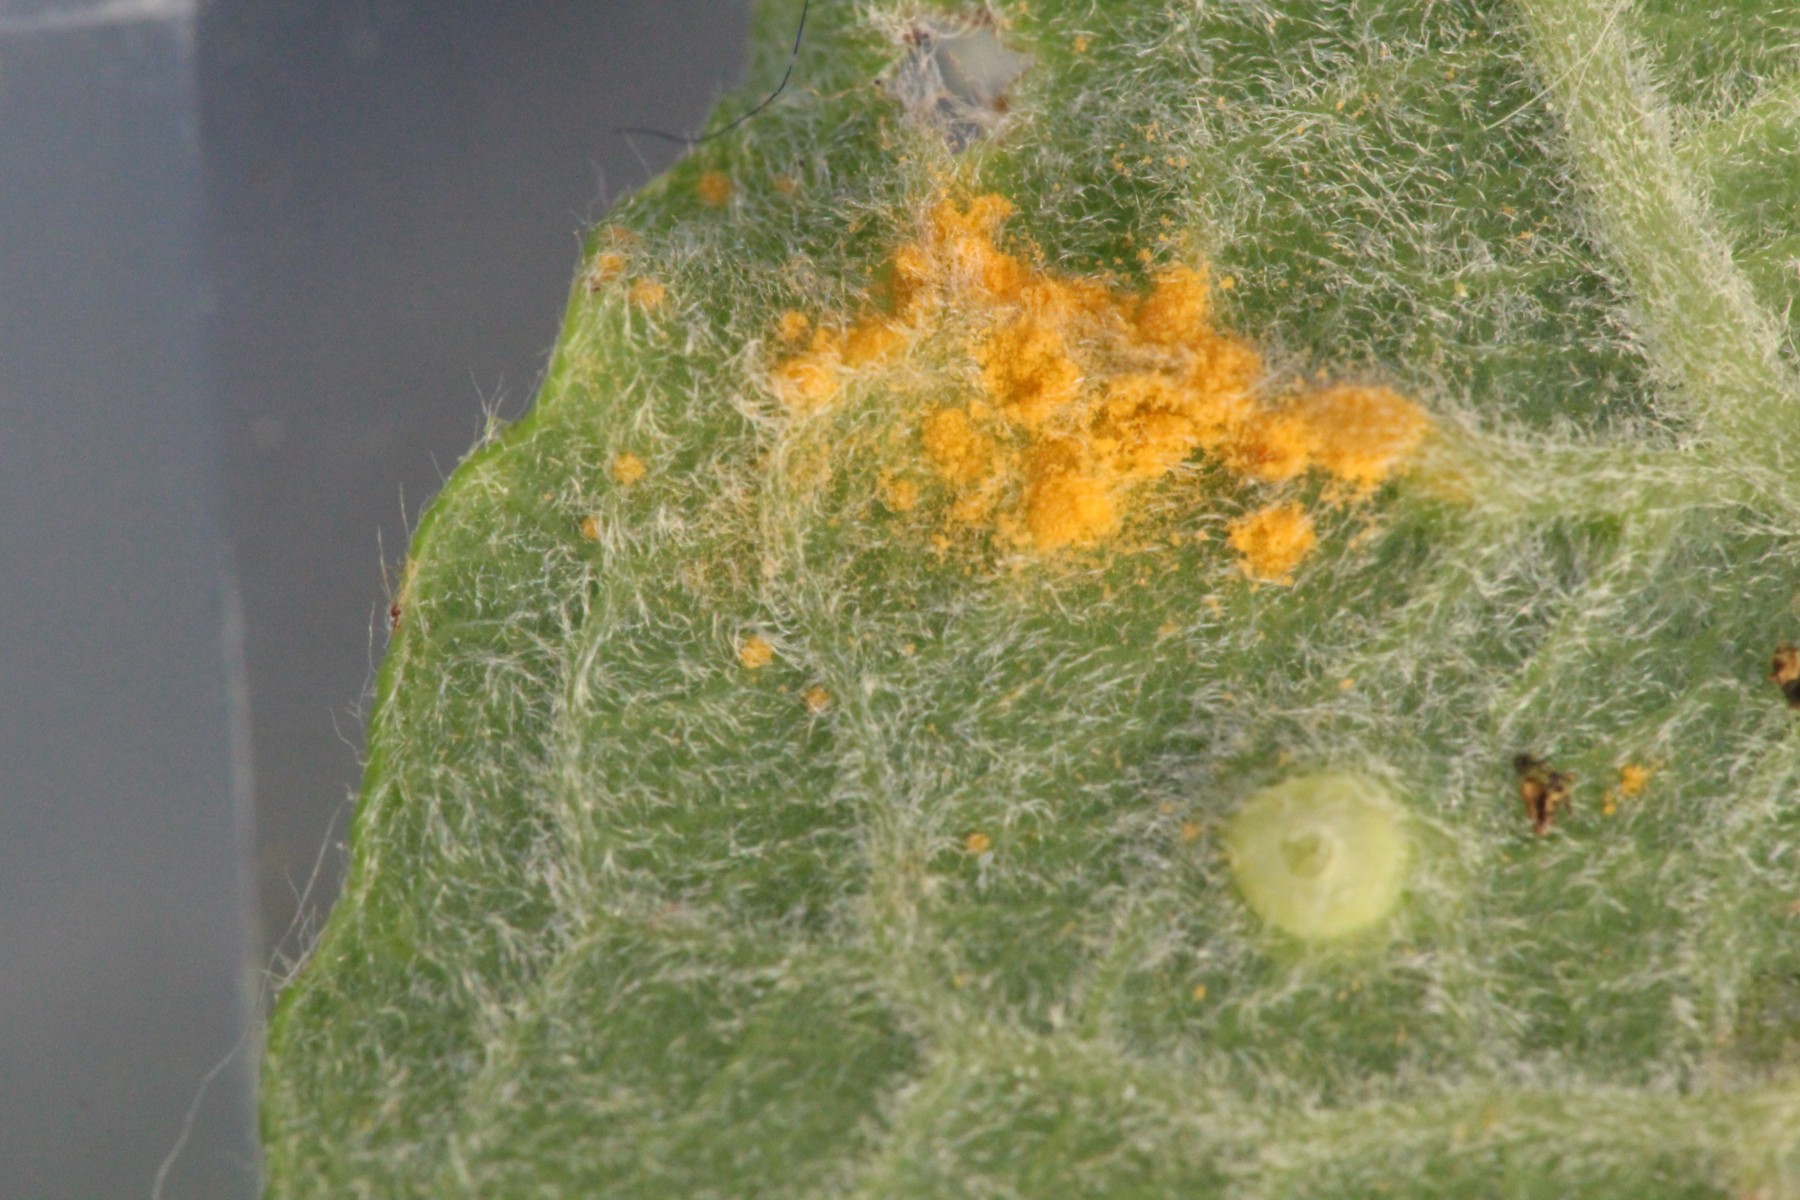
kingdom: Fungi
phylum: Basidiomycota
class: Pucciniomycetes
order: Pucciniales
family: Melampsoraceae
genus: Melampsora
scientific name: Melampsora
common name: skorperust
